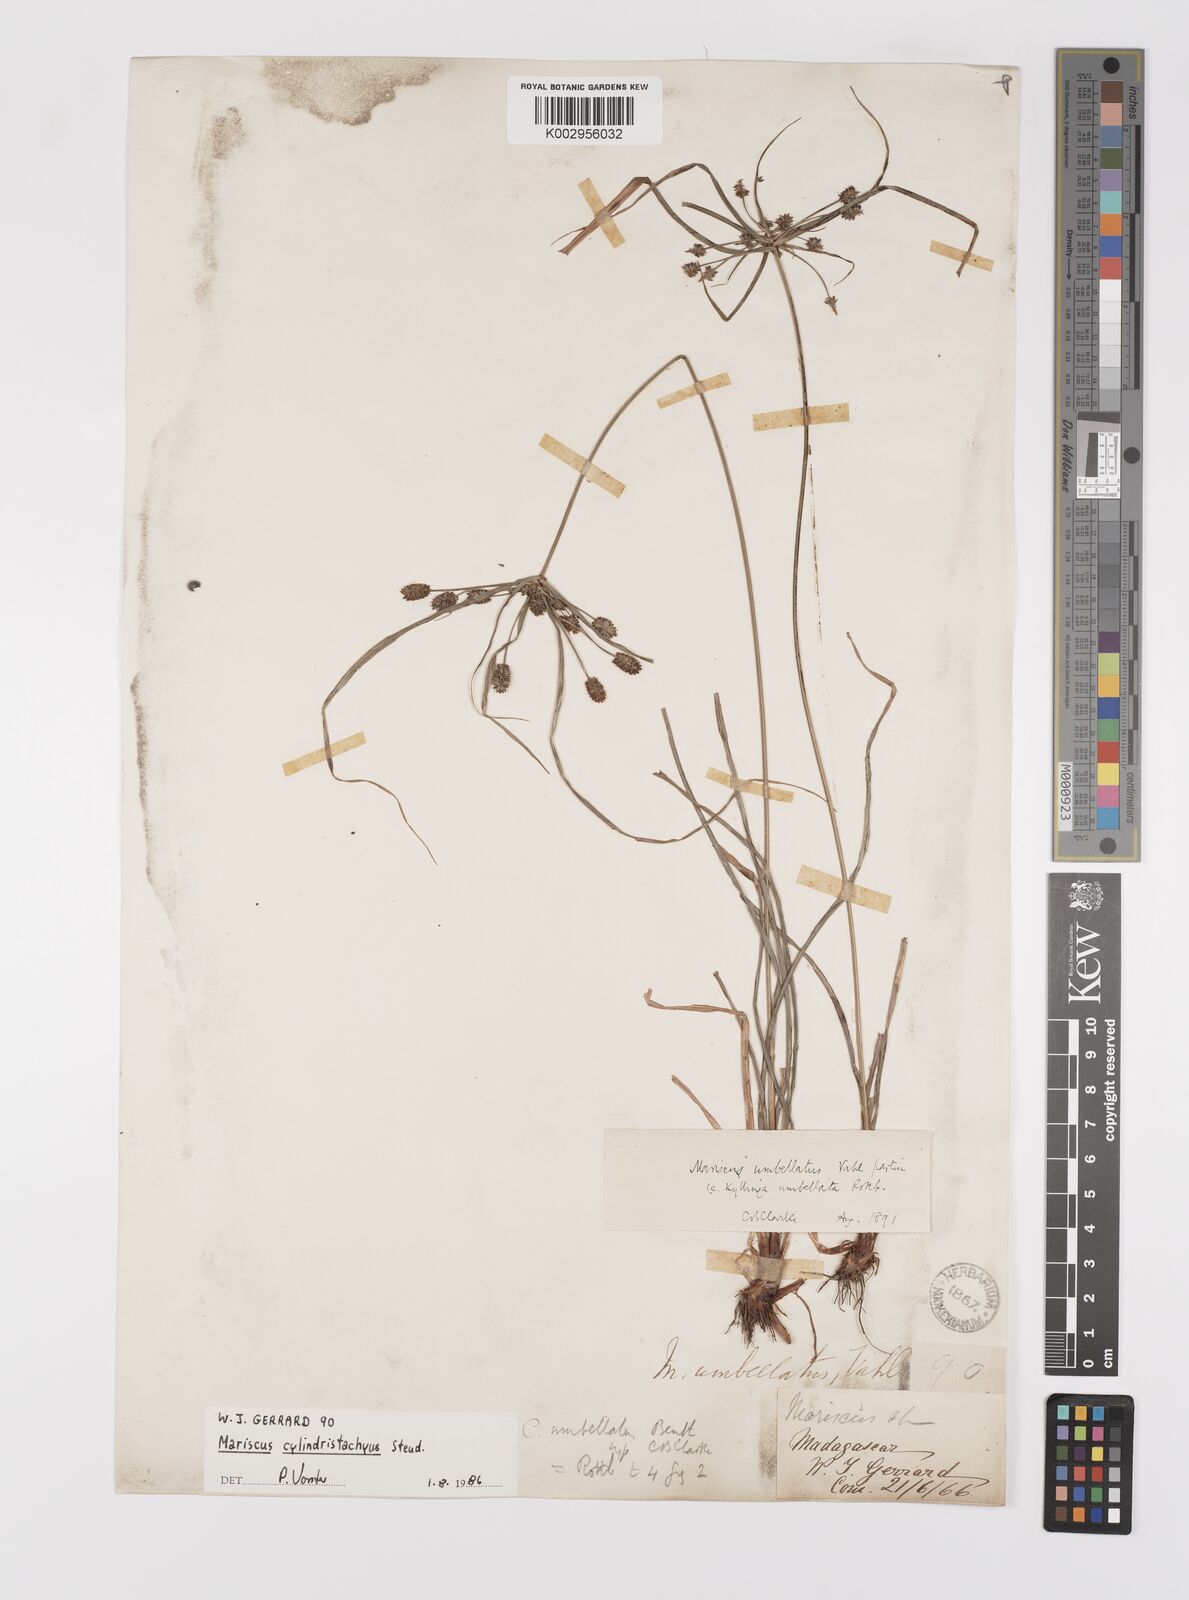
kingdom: Plantae
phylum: Tracheophyta
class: Liliopsida
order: Poales
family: Cyperaceae
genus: Cyperus
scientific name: Cyperus cyperoides
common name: Pacific island flat sedge
